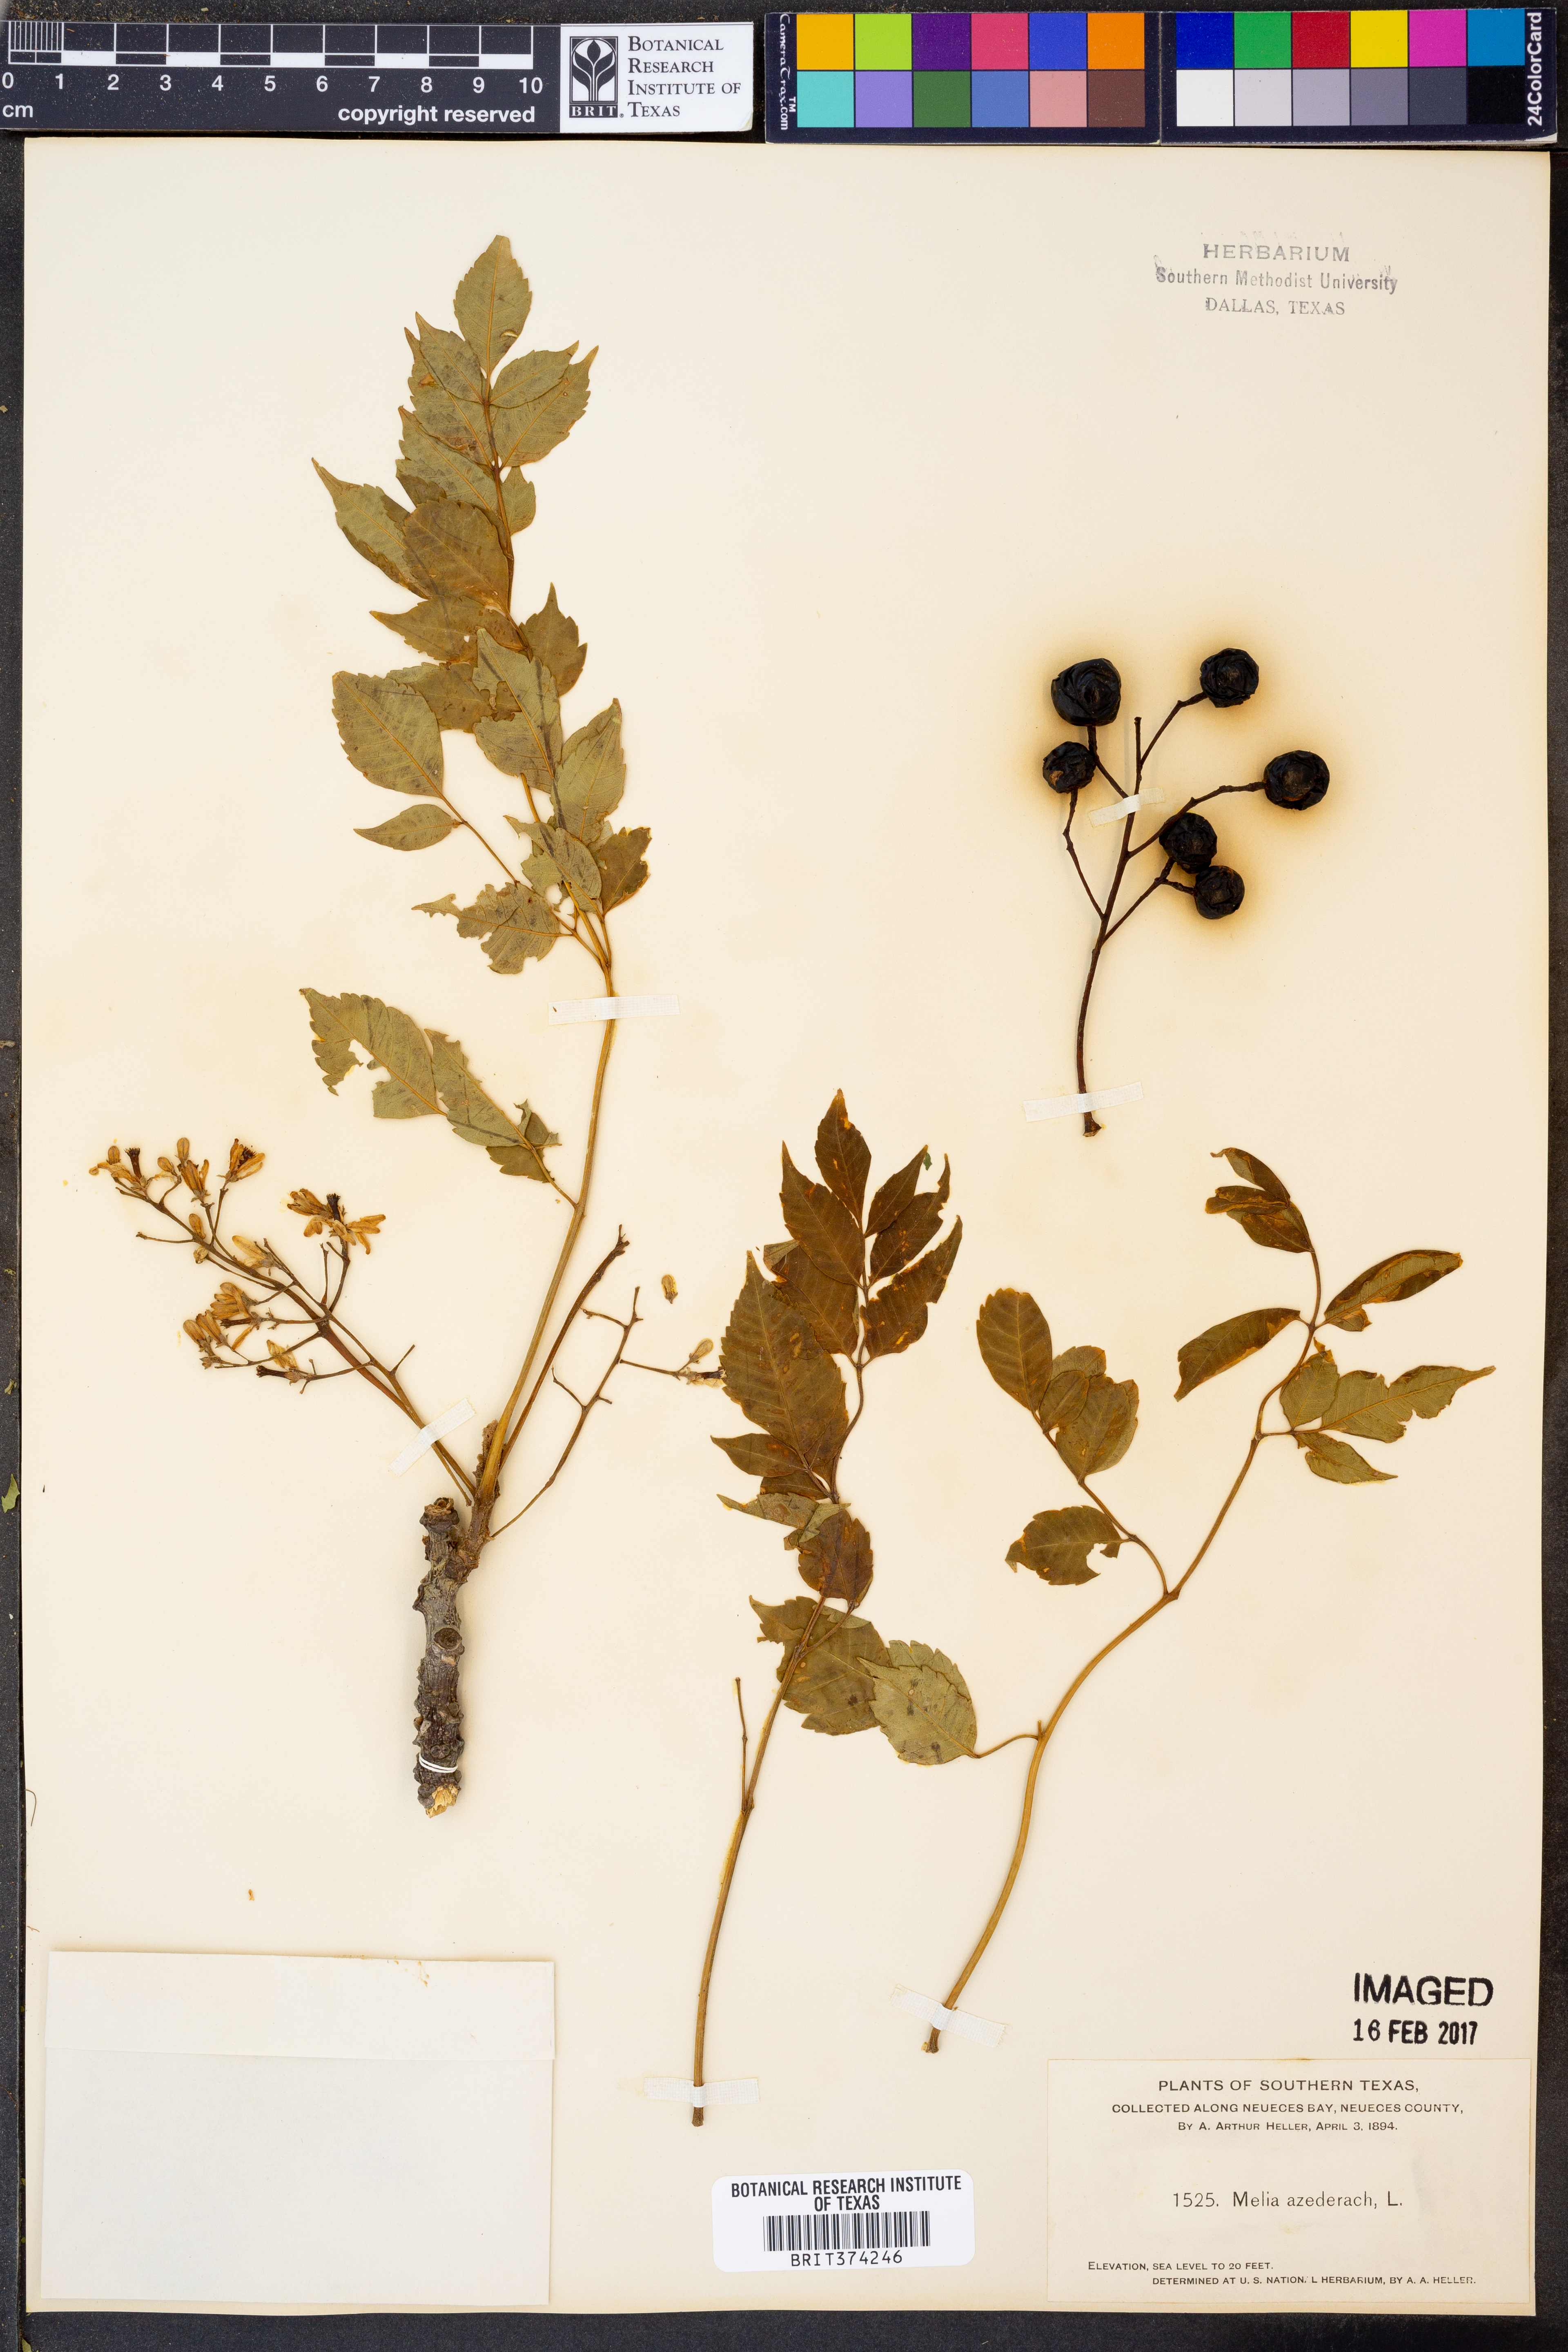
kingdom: Plantae
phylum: Tracheophyta
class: Magnoliopsida
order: Sapindales
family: Meliaceae
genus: Azadirachta
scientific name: Azadirachta indica
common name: Neem
